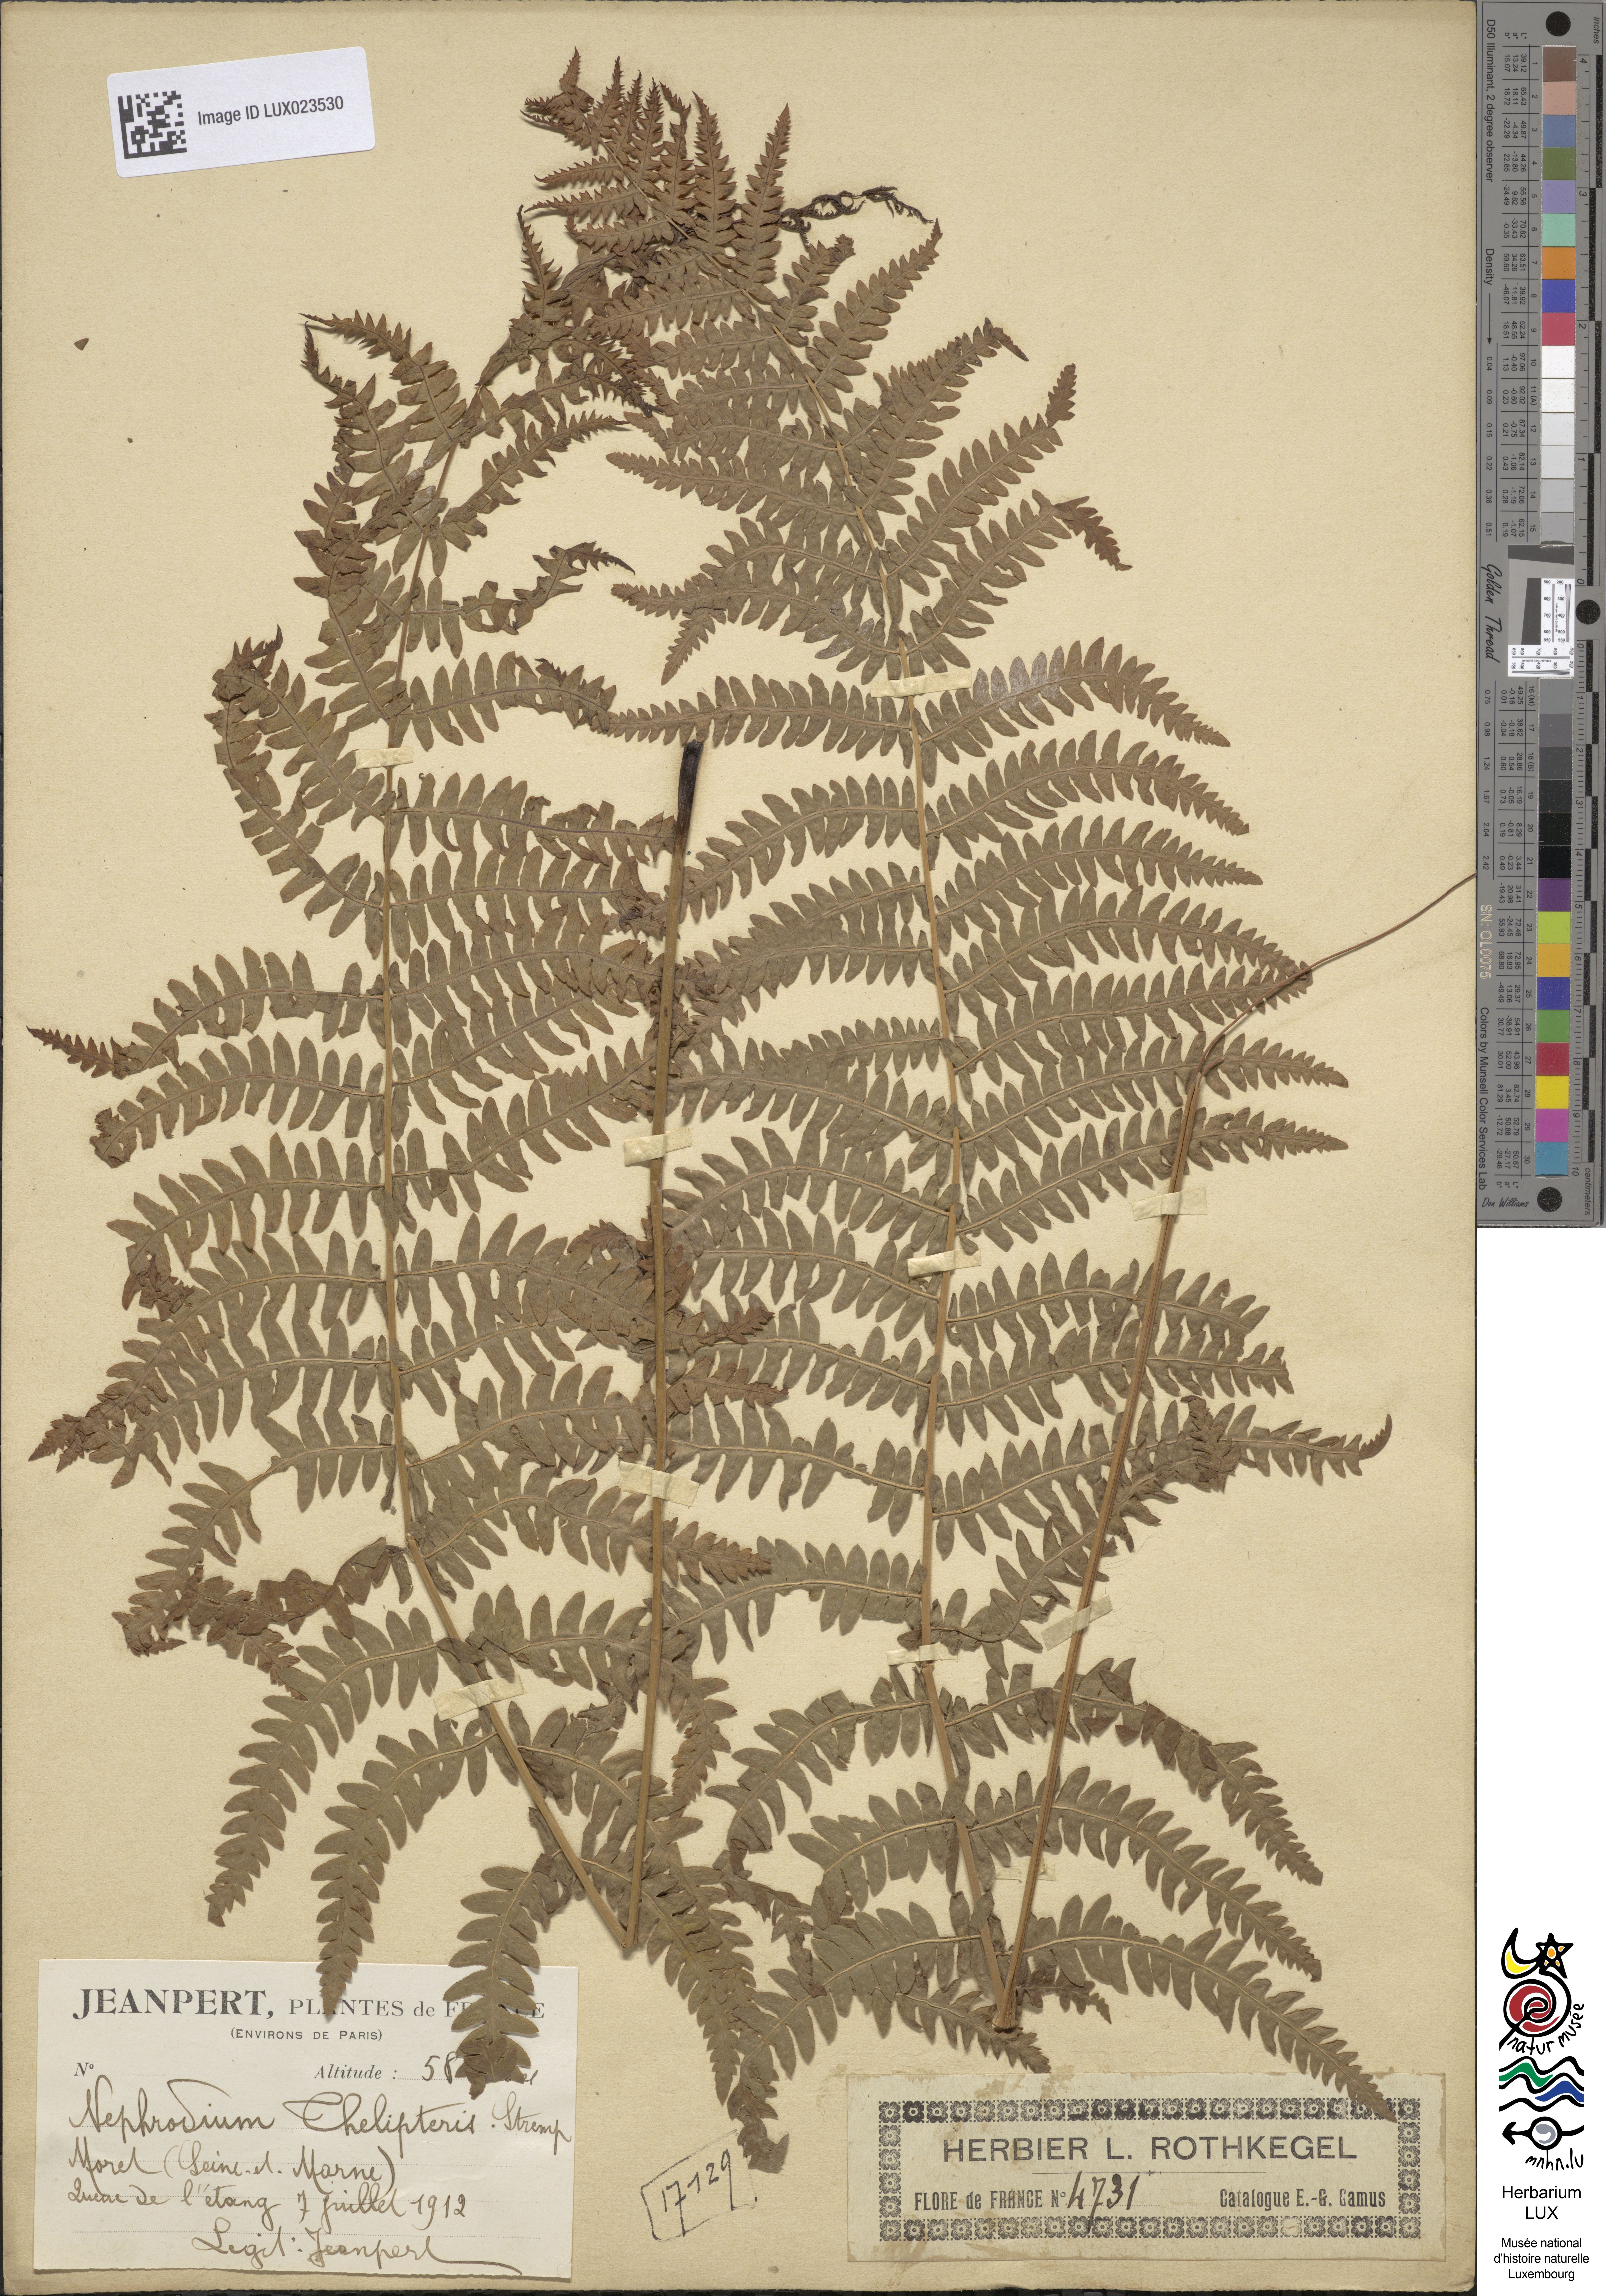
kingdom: Plantae
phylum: Tracheophyta
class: Polypodiopsida
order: Polypodiales
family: Thelypteridaceae
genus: Thelypteris
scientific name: Thelypteris palustris
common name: Marsh fern
